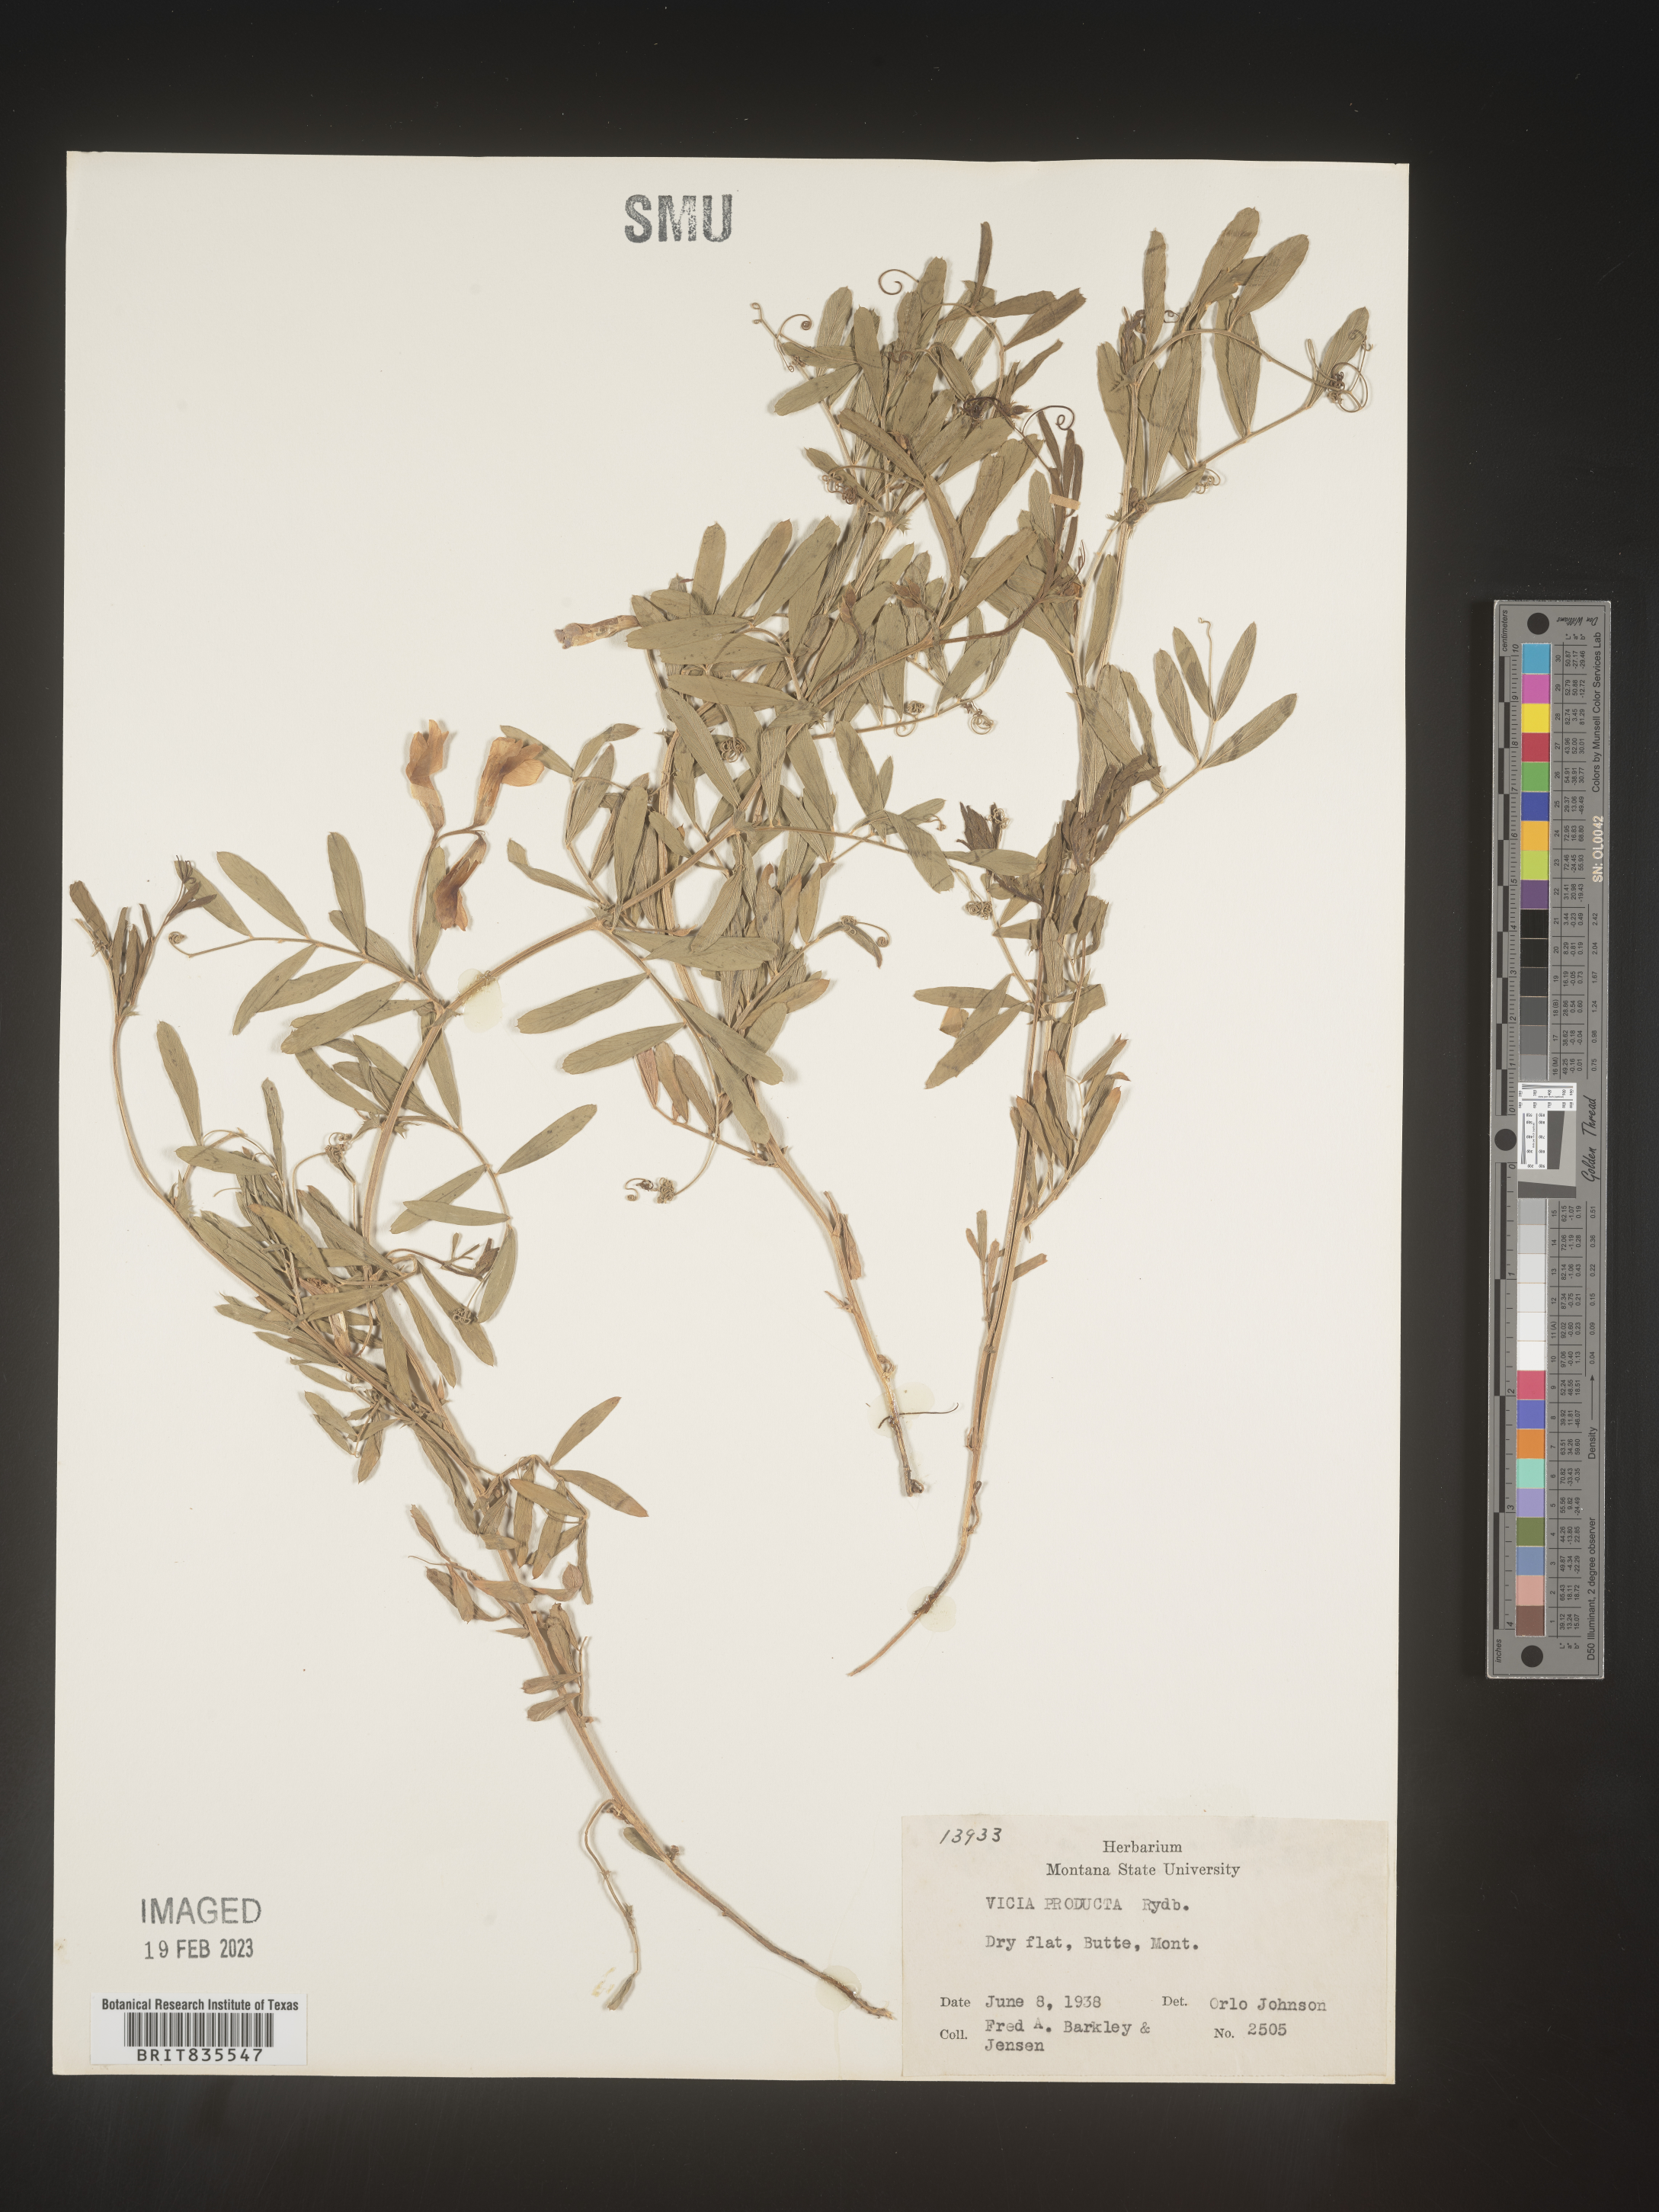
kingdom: Plantae
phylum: Tracheophyta
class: Magnoliopsida
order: Fabales
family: Fabaceae
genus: Vicia
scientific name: Vicia americana
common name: American vetch
